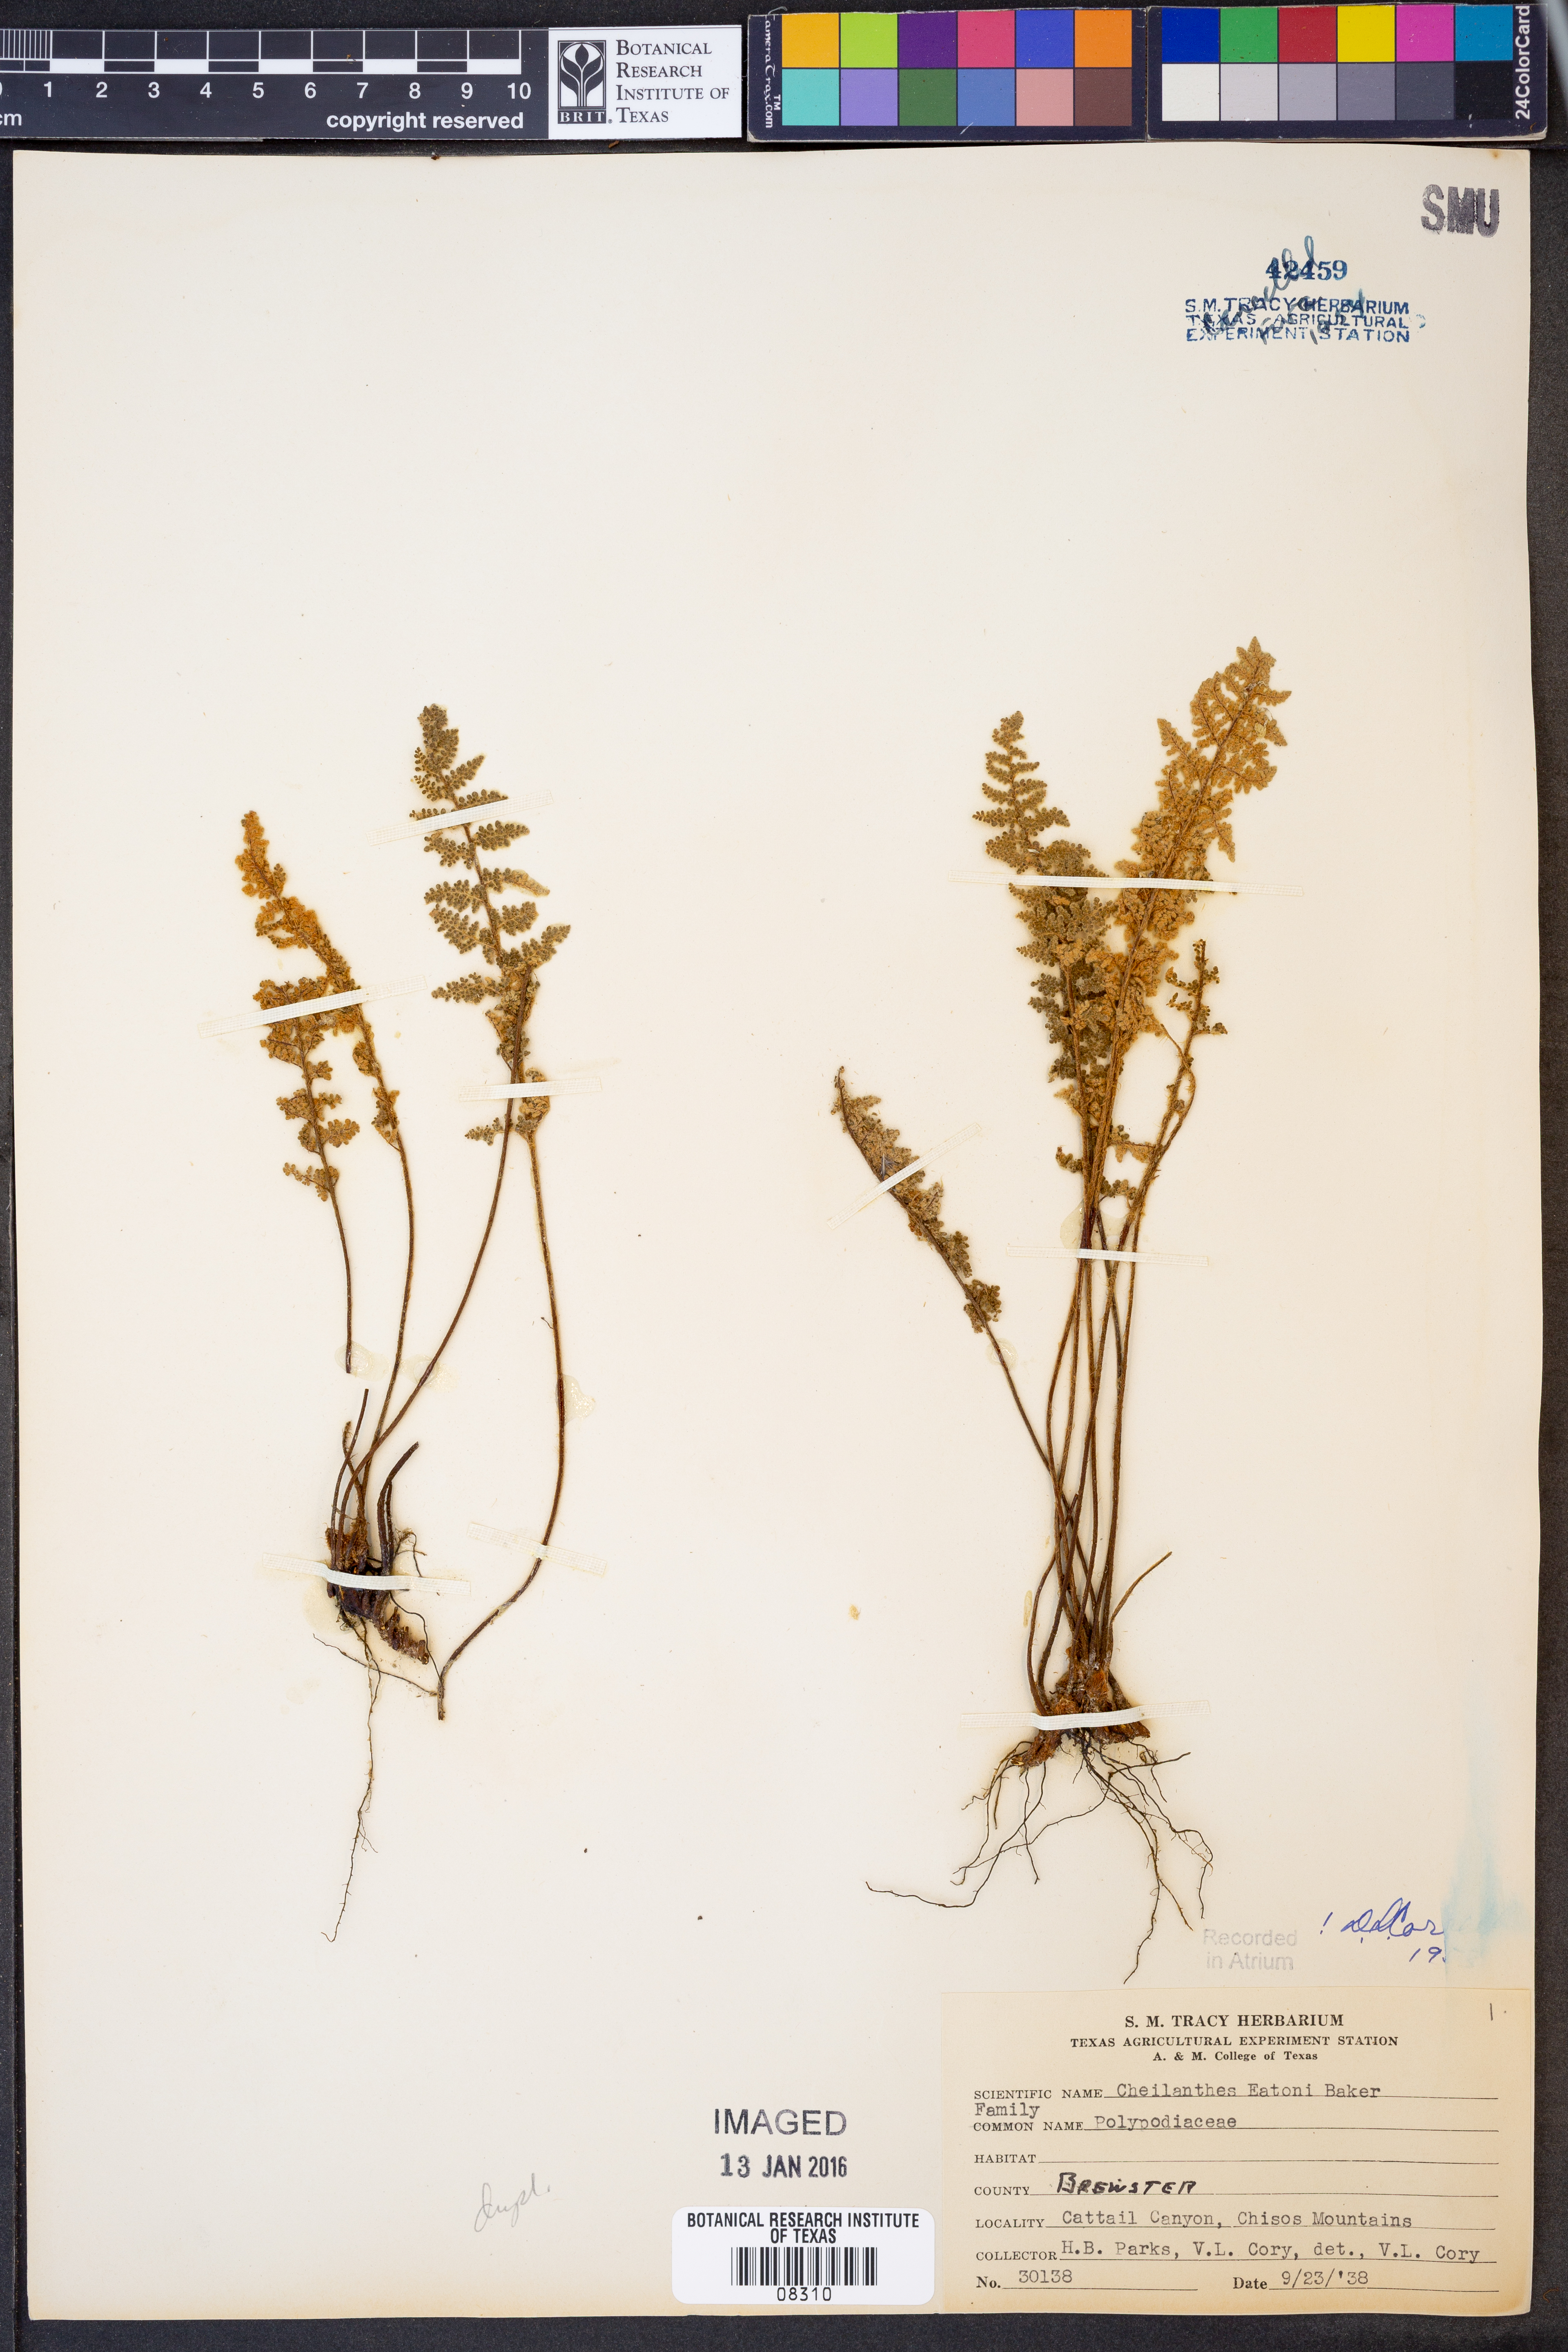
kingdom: Plantae
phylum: Tracheophyta
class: Polypodiopsida
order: Polypodiales
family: Pteridaceae
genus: Myriopteris
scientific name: Myriopteris rufa
